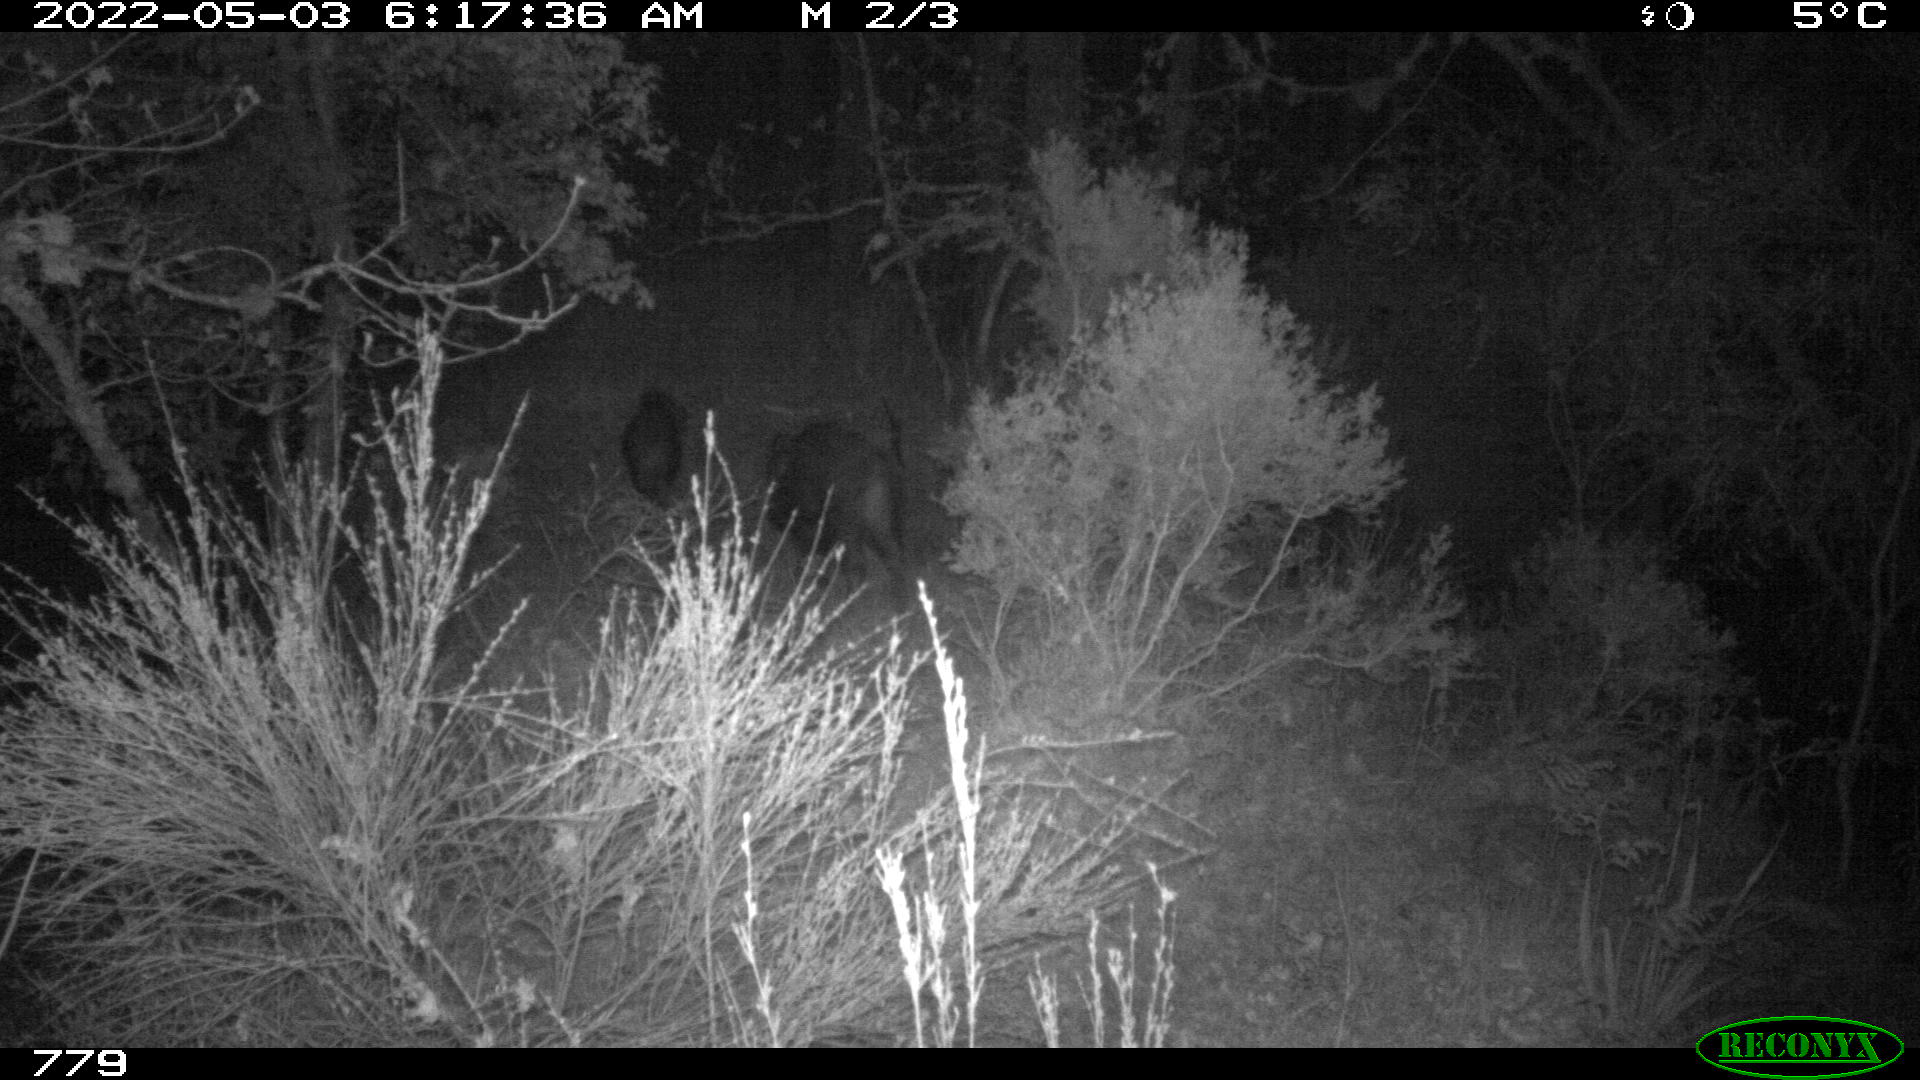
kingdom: Animalia
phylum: Chordata
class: Mammalia
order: Artiodactyla
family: Suidae
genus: Sus
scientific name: Sus scrofa
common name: Wild boar
